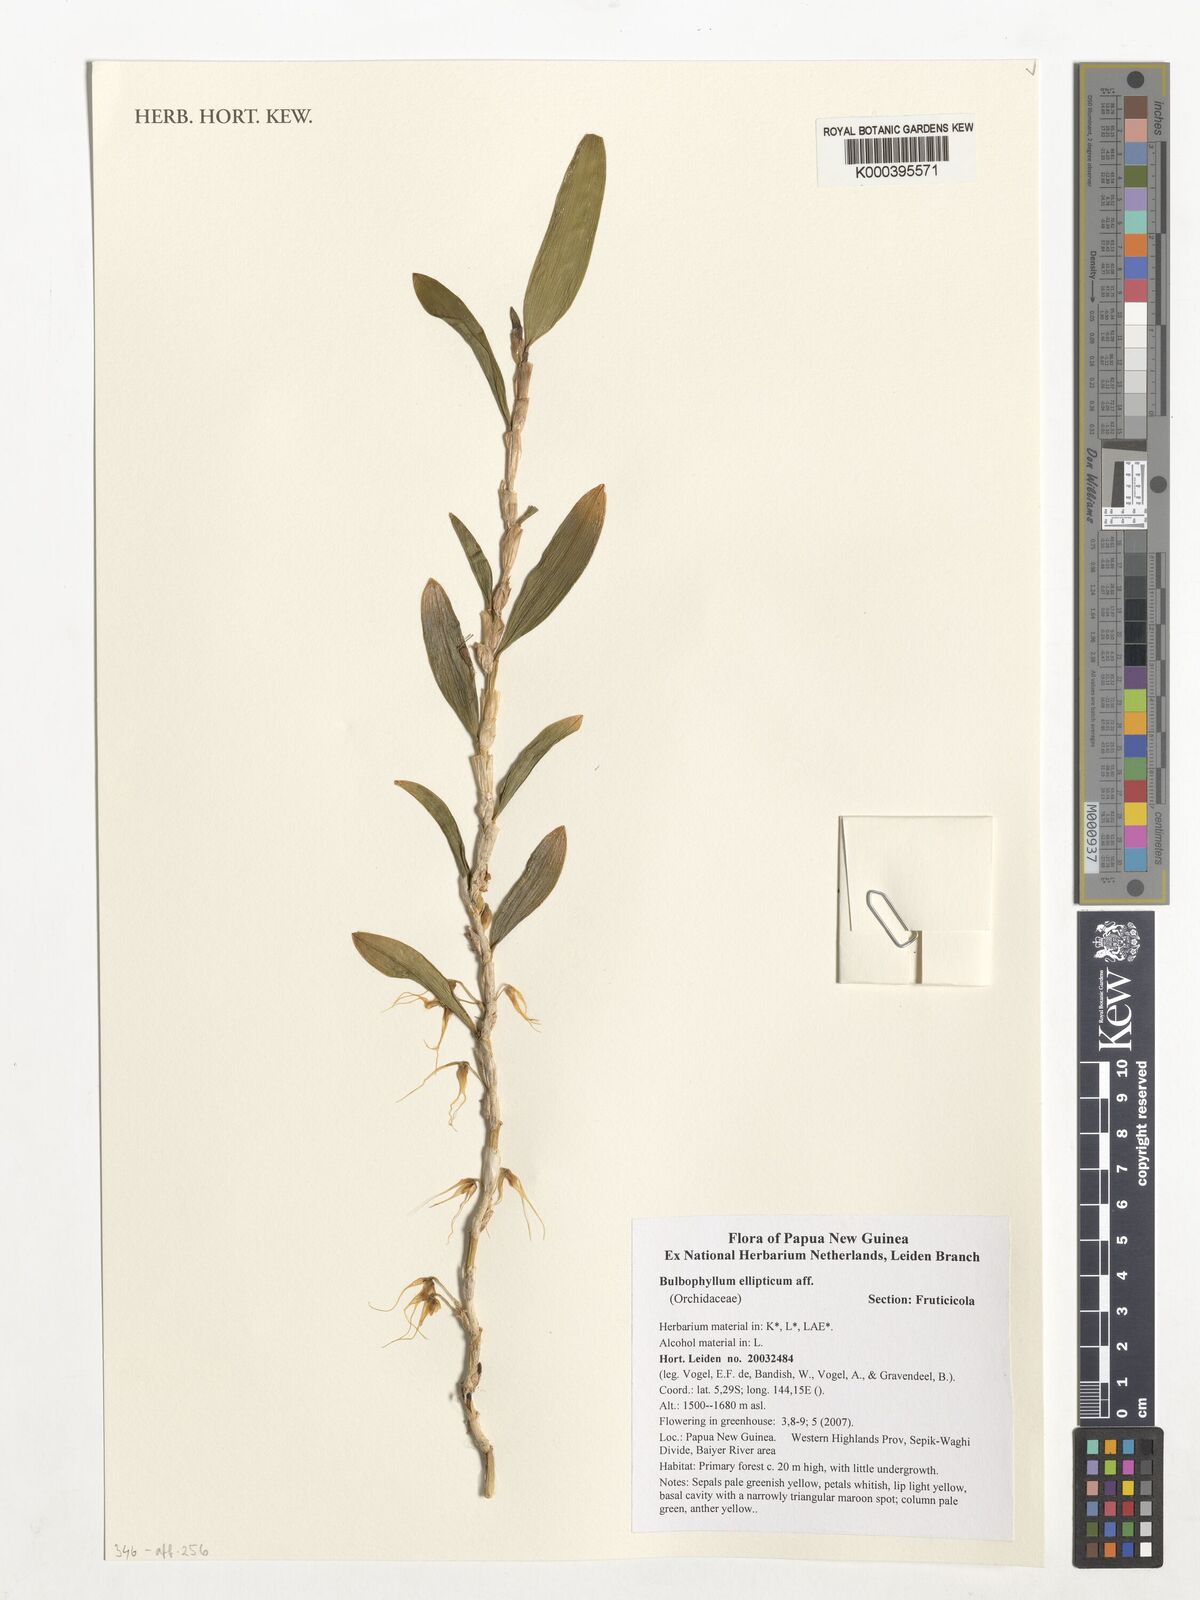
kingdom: Plantae
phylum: Tracheophyta
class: Liliopsida
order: Asparagales
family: Orchidaceae
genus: Bulbophyllum
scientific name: Bulbophyllum oxychilum
